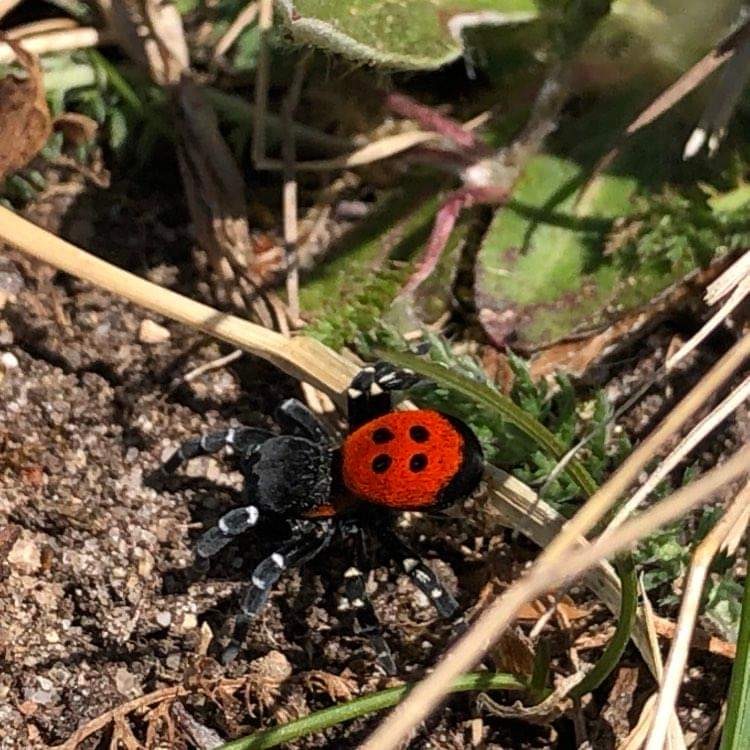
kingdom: Animalia
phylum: Arthropoda
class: Arachnida
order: Araneae
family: Eresidae
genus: Eresus
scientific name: Eresus sandaliatus
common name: Mariehøneedderkop
